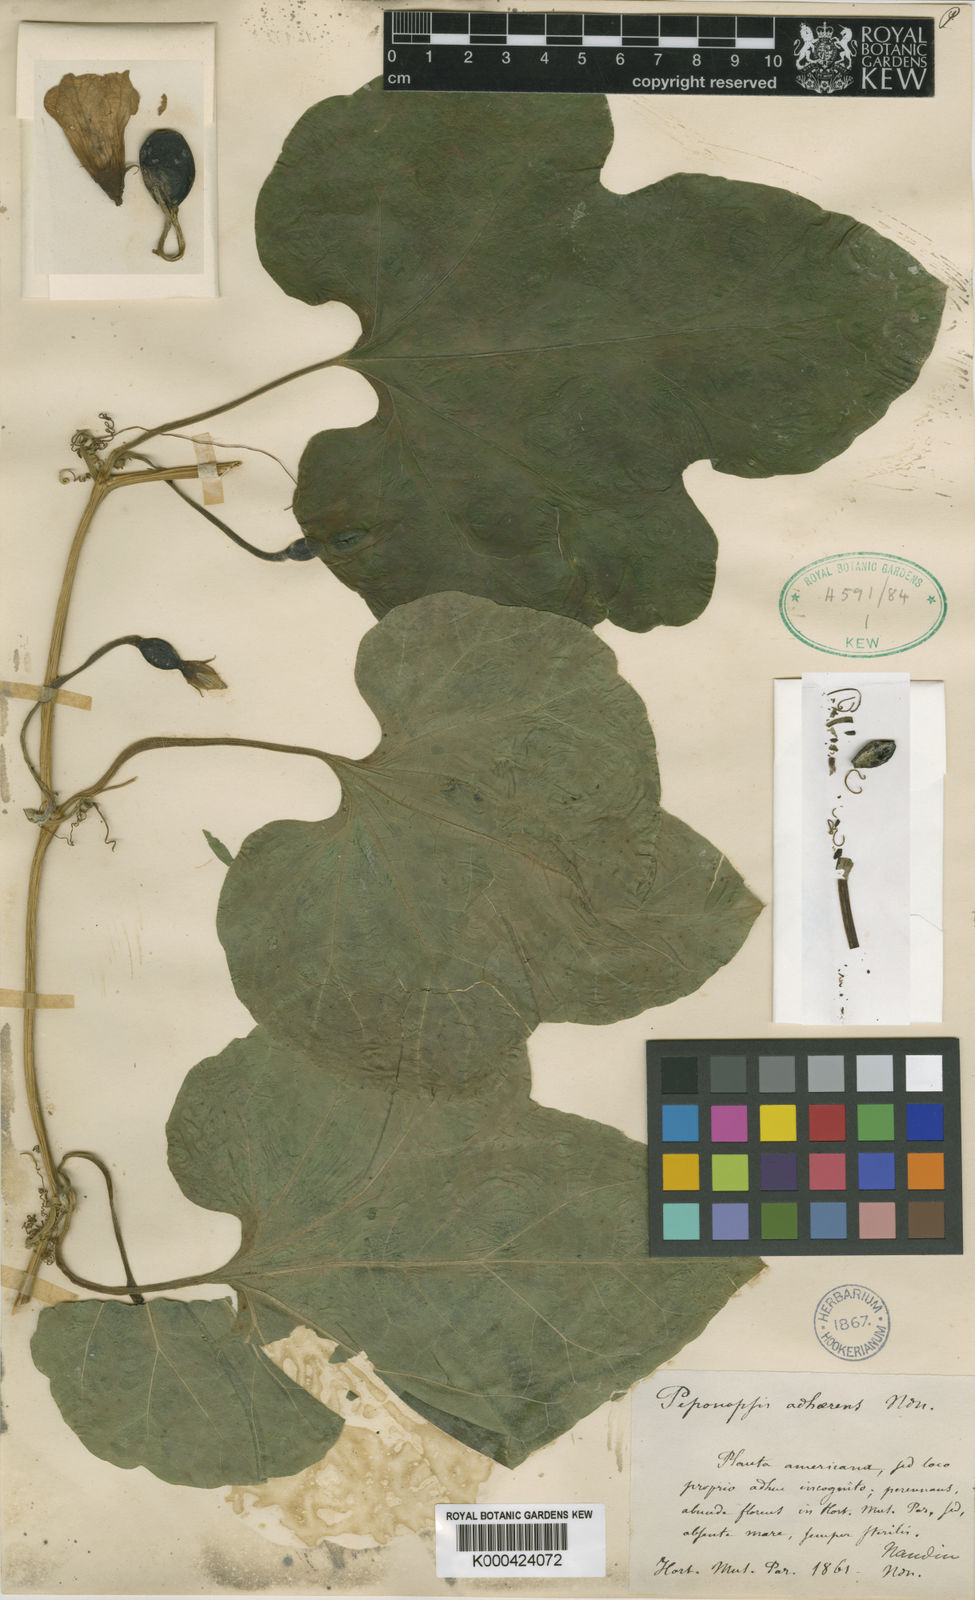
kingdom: Plantae
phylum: Tracheophyta
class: Magnoliopsida
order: Cucurbitales
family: Cucurbitaceae
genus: Peponopsis
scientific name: Peponopsis adhaerens
